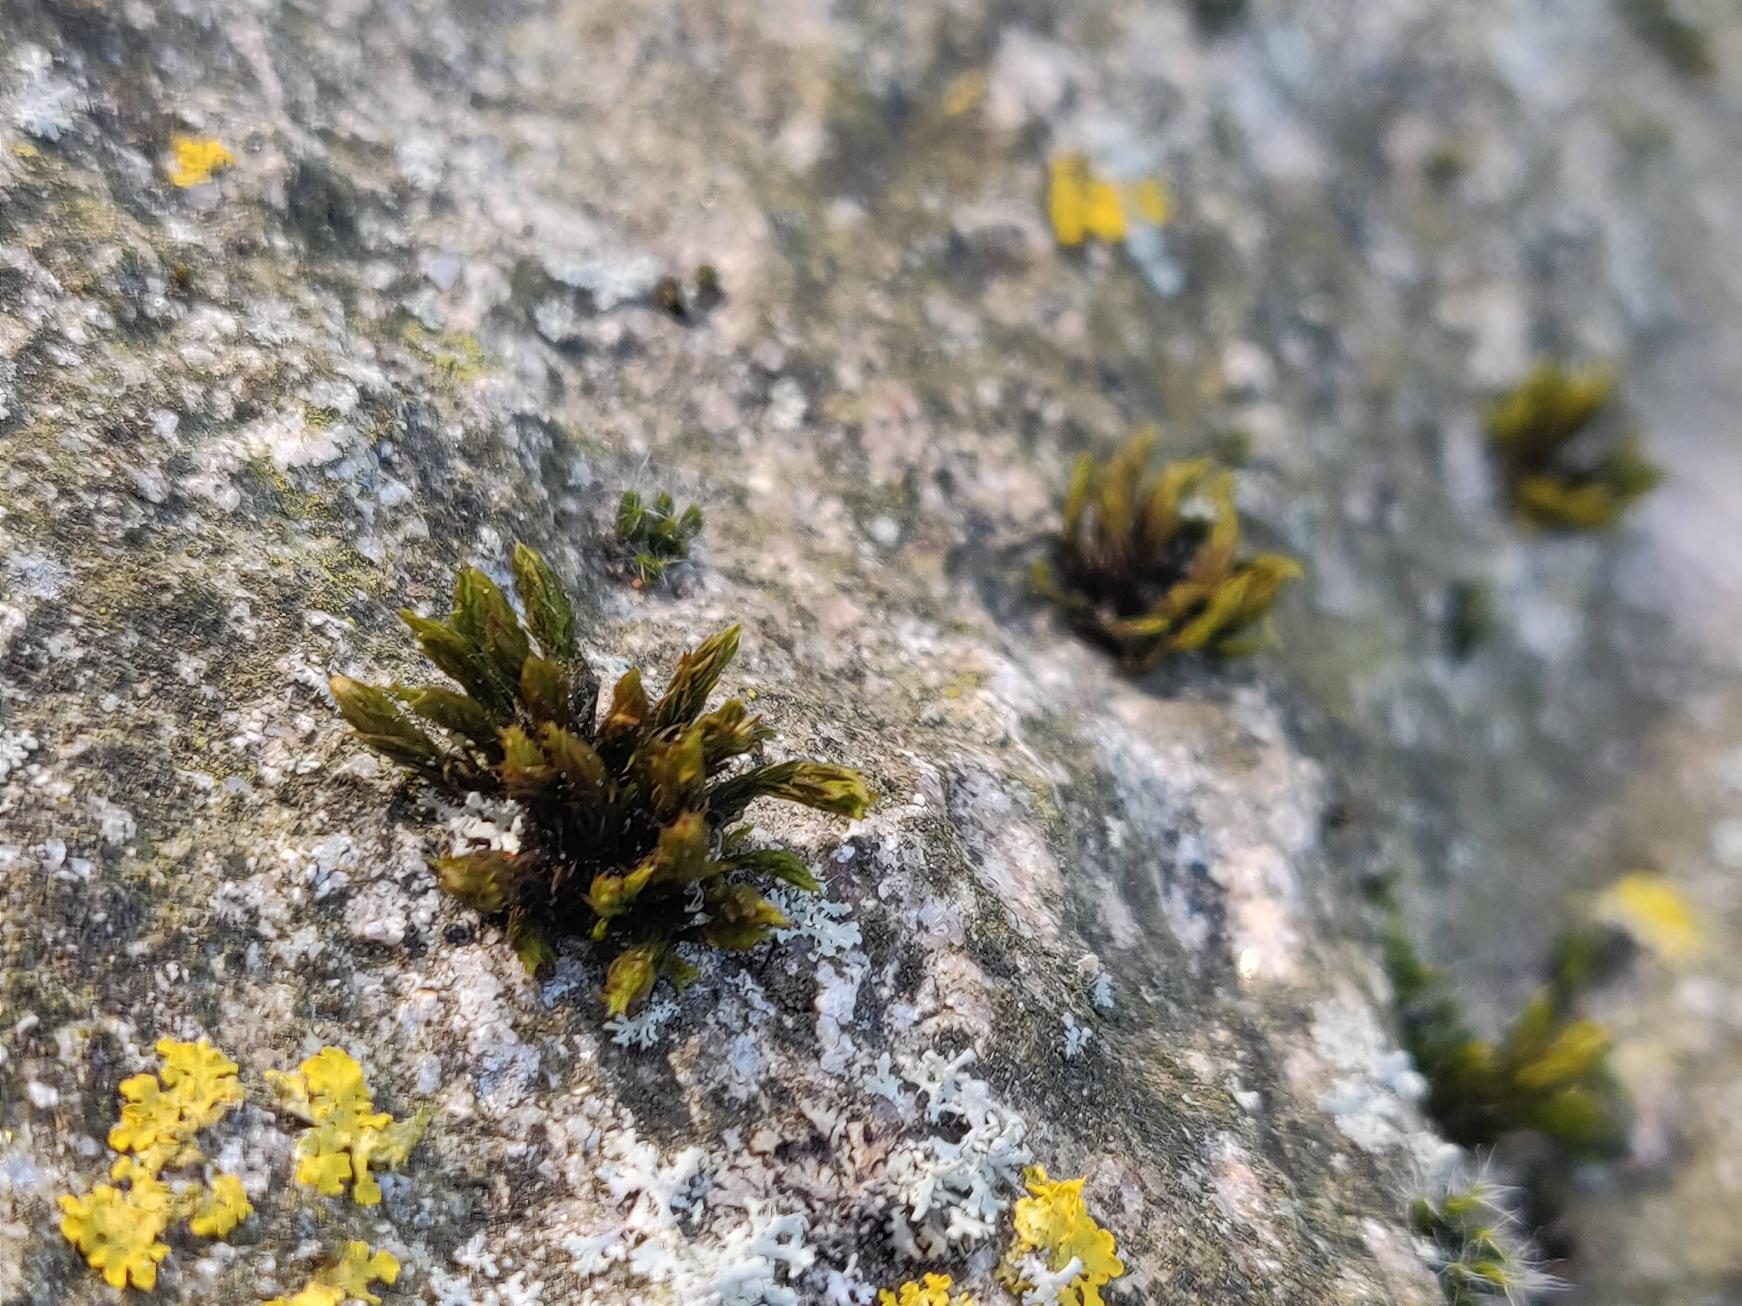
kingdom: Plantae
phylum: Bryophyta
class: Bryopsida
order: Orthotrichales
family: Orthotrichaceae
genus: Orthotrichum
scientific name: Orthotrichum
